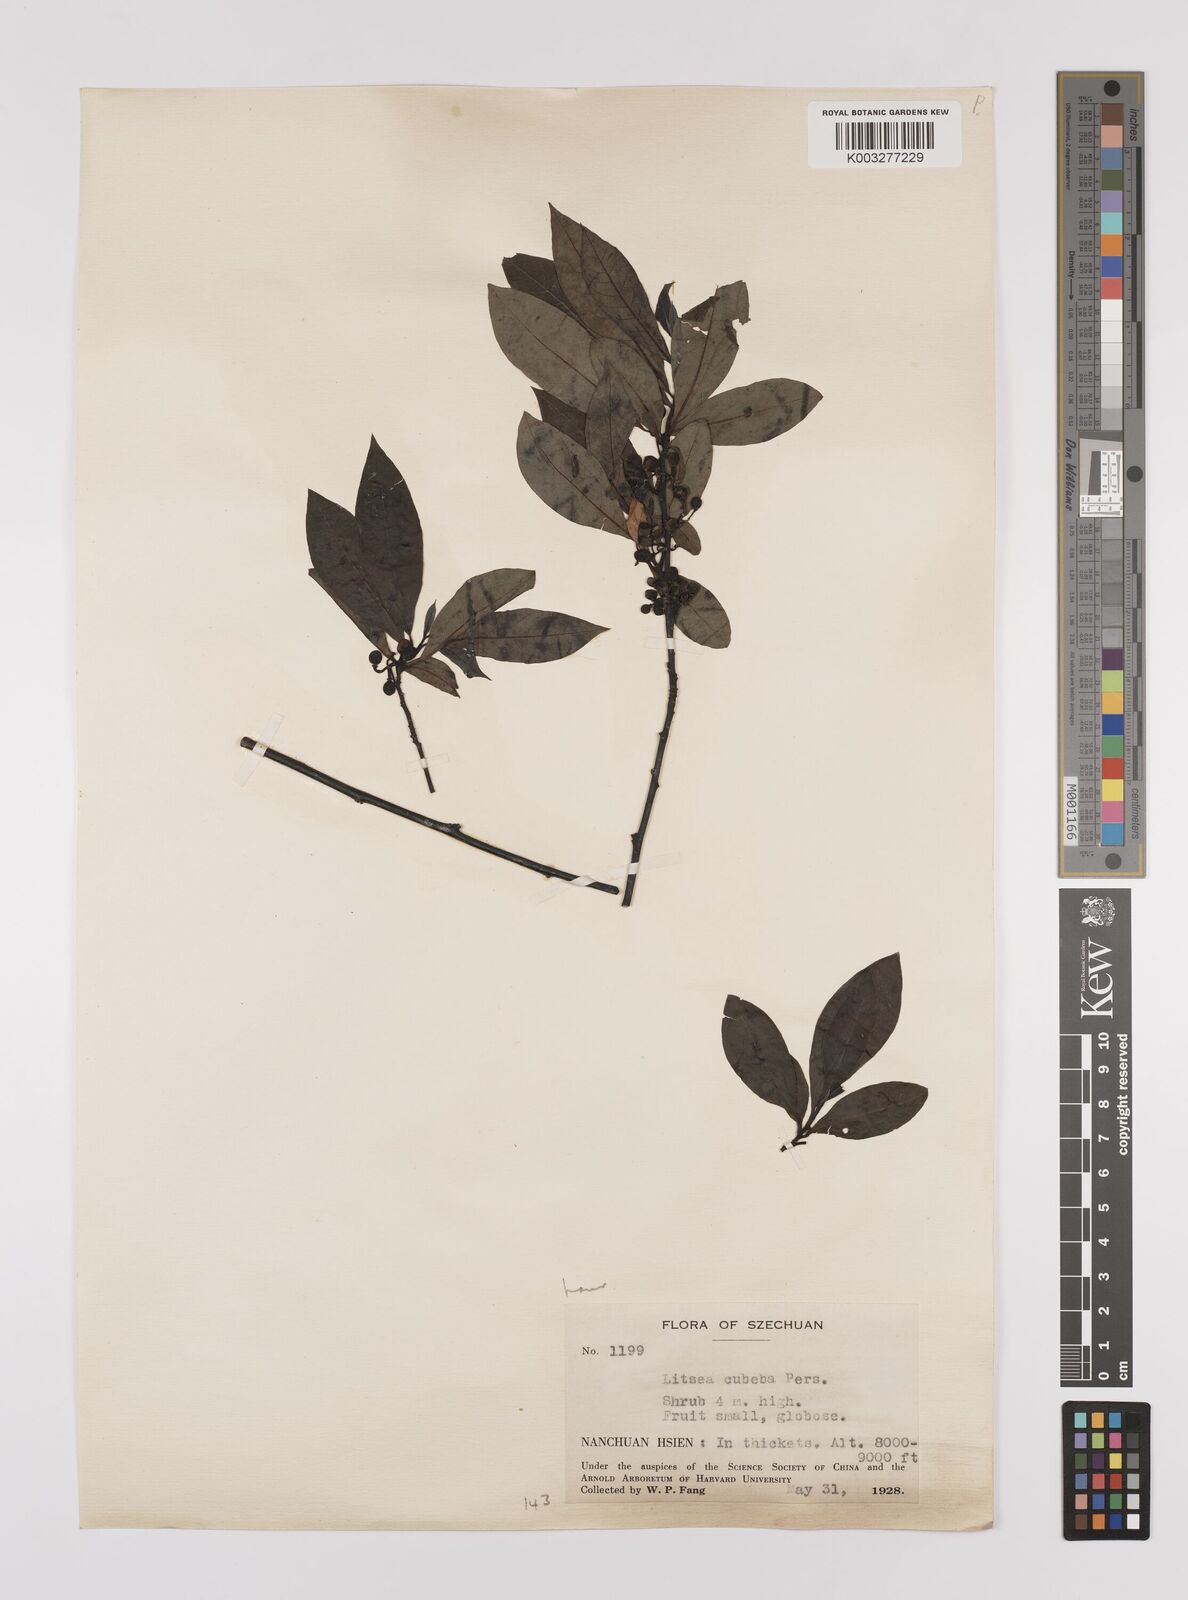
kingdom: Plantae
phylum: Tracheophyta
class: Magnoliopsida
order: Laurales
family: Lauraceae
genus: Litsea
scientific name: Litsea cubeba
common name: Mountain-pepper
